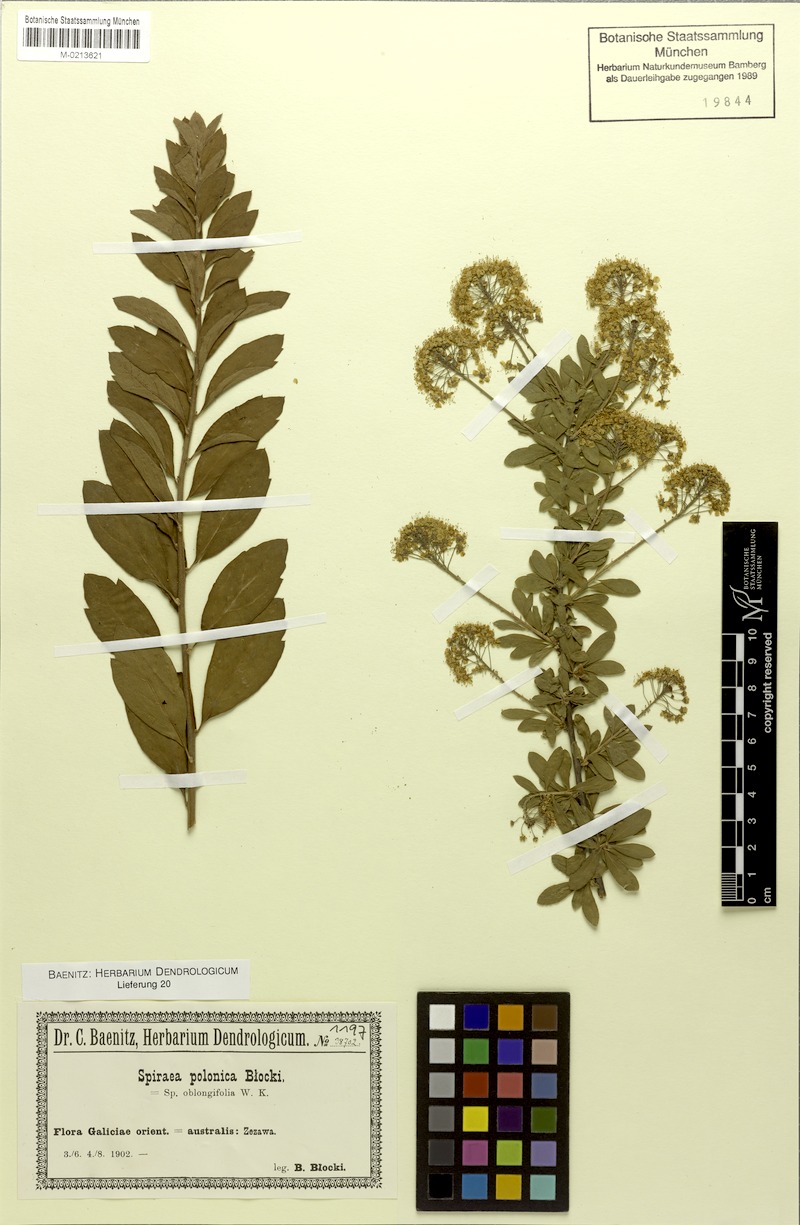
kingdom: Plantae
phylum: Tracheophyta
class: Magnoliopsida
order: Rosales
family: Rosaceae
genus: Spiraea
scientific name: Spiraea media
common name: Russian spiraea
